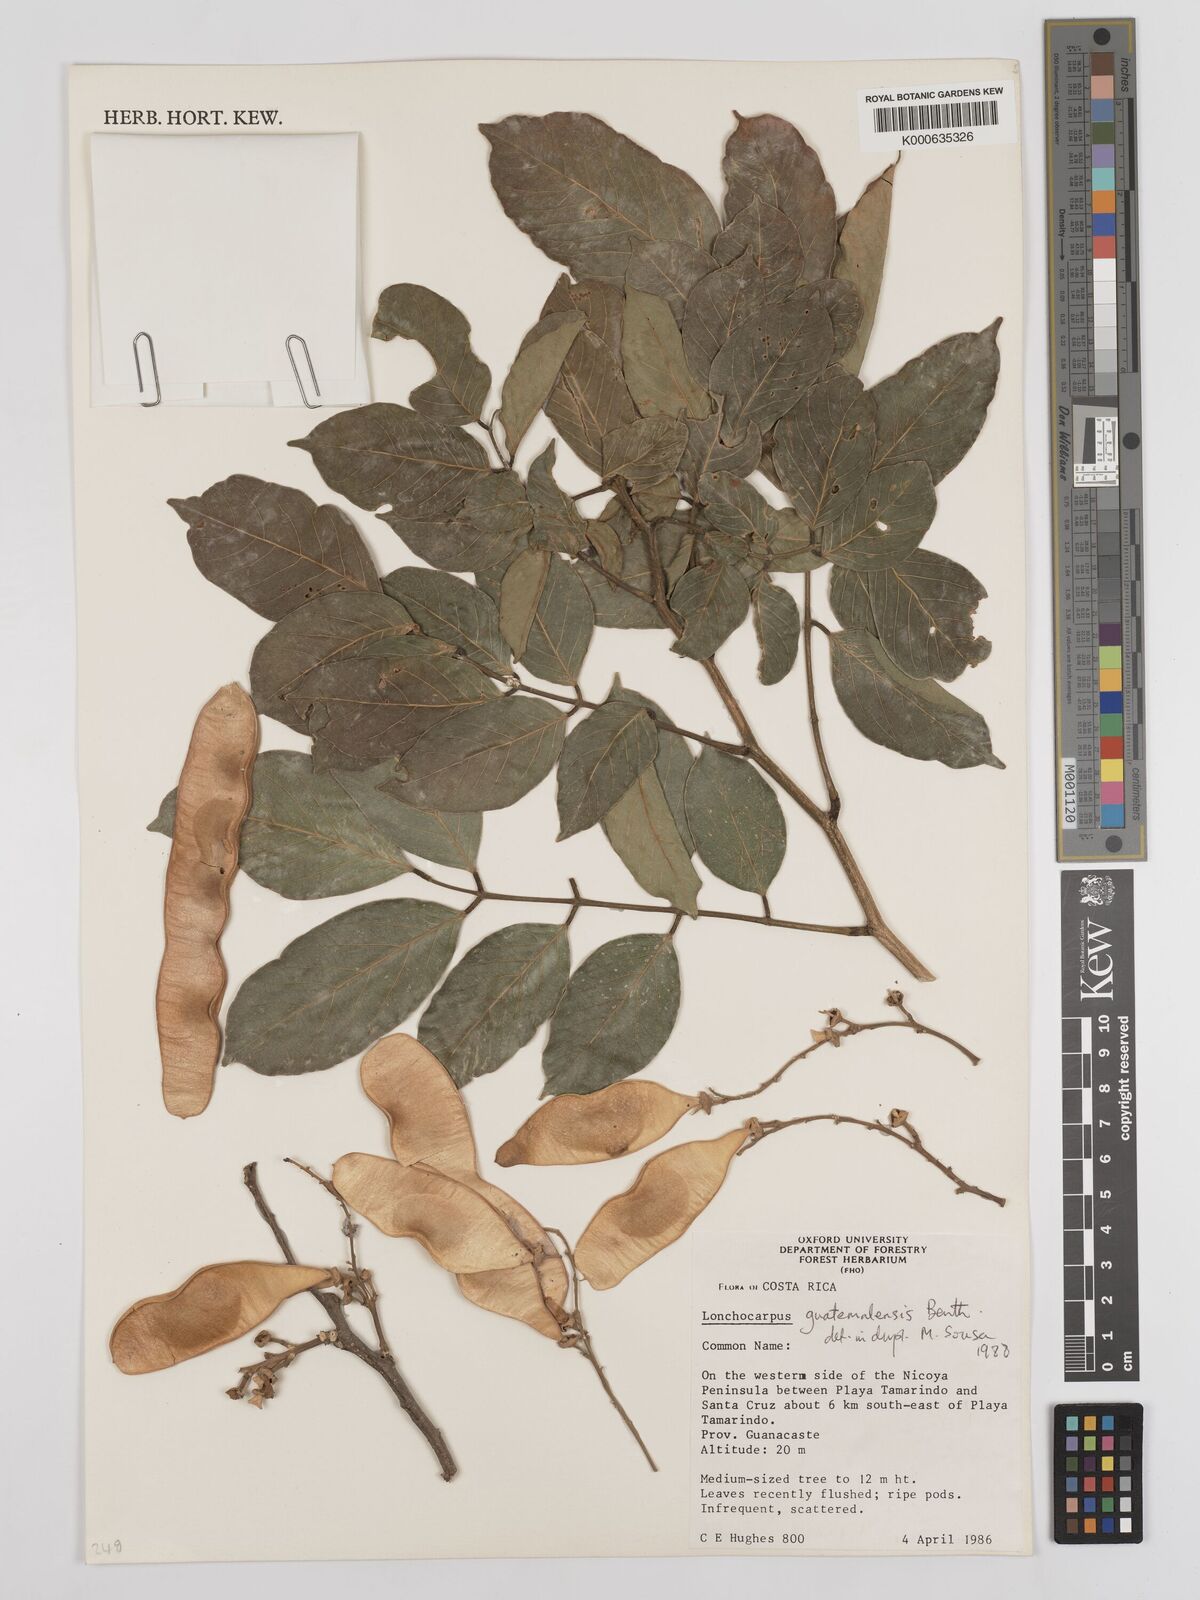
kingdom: Plantae
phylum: Tracheophyta
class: Magnoliopsida
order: Fabales
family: Fabaceae
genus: Lonchocarpus
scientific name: Lonchocarpus guatemalensis
